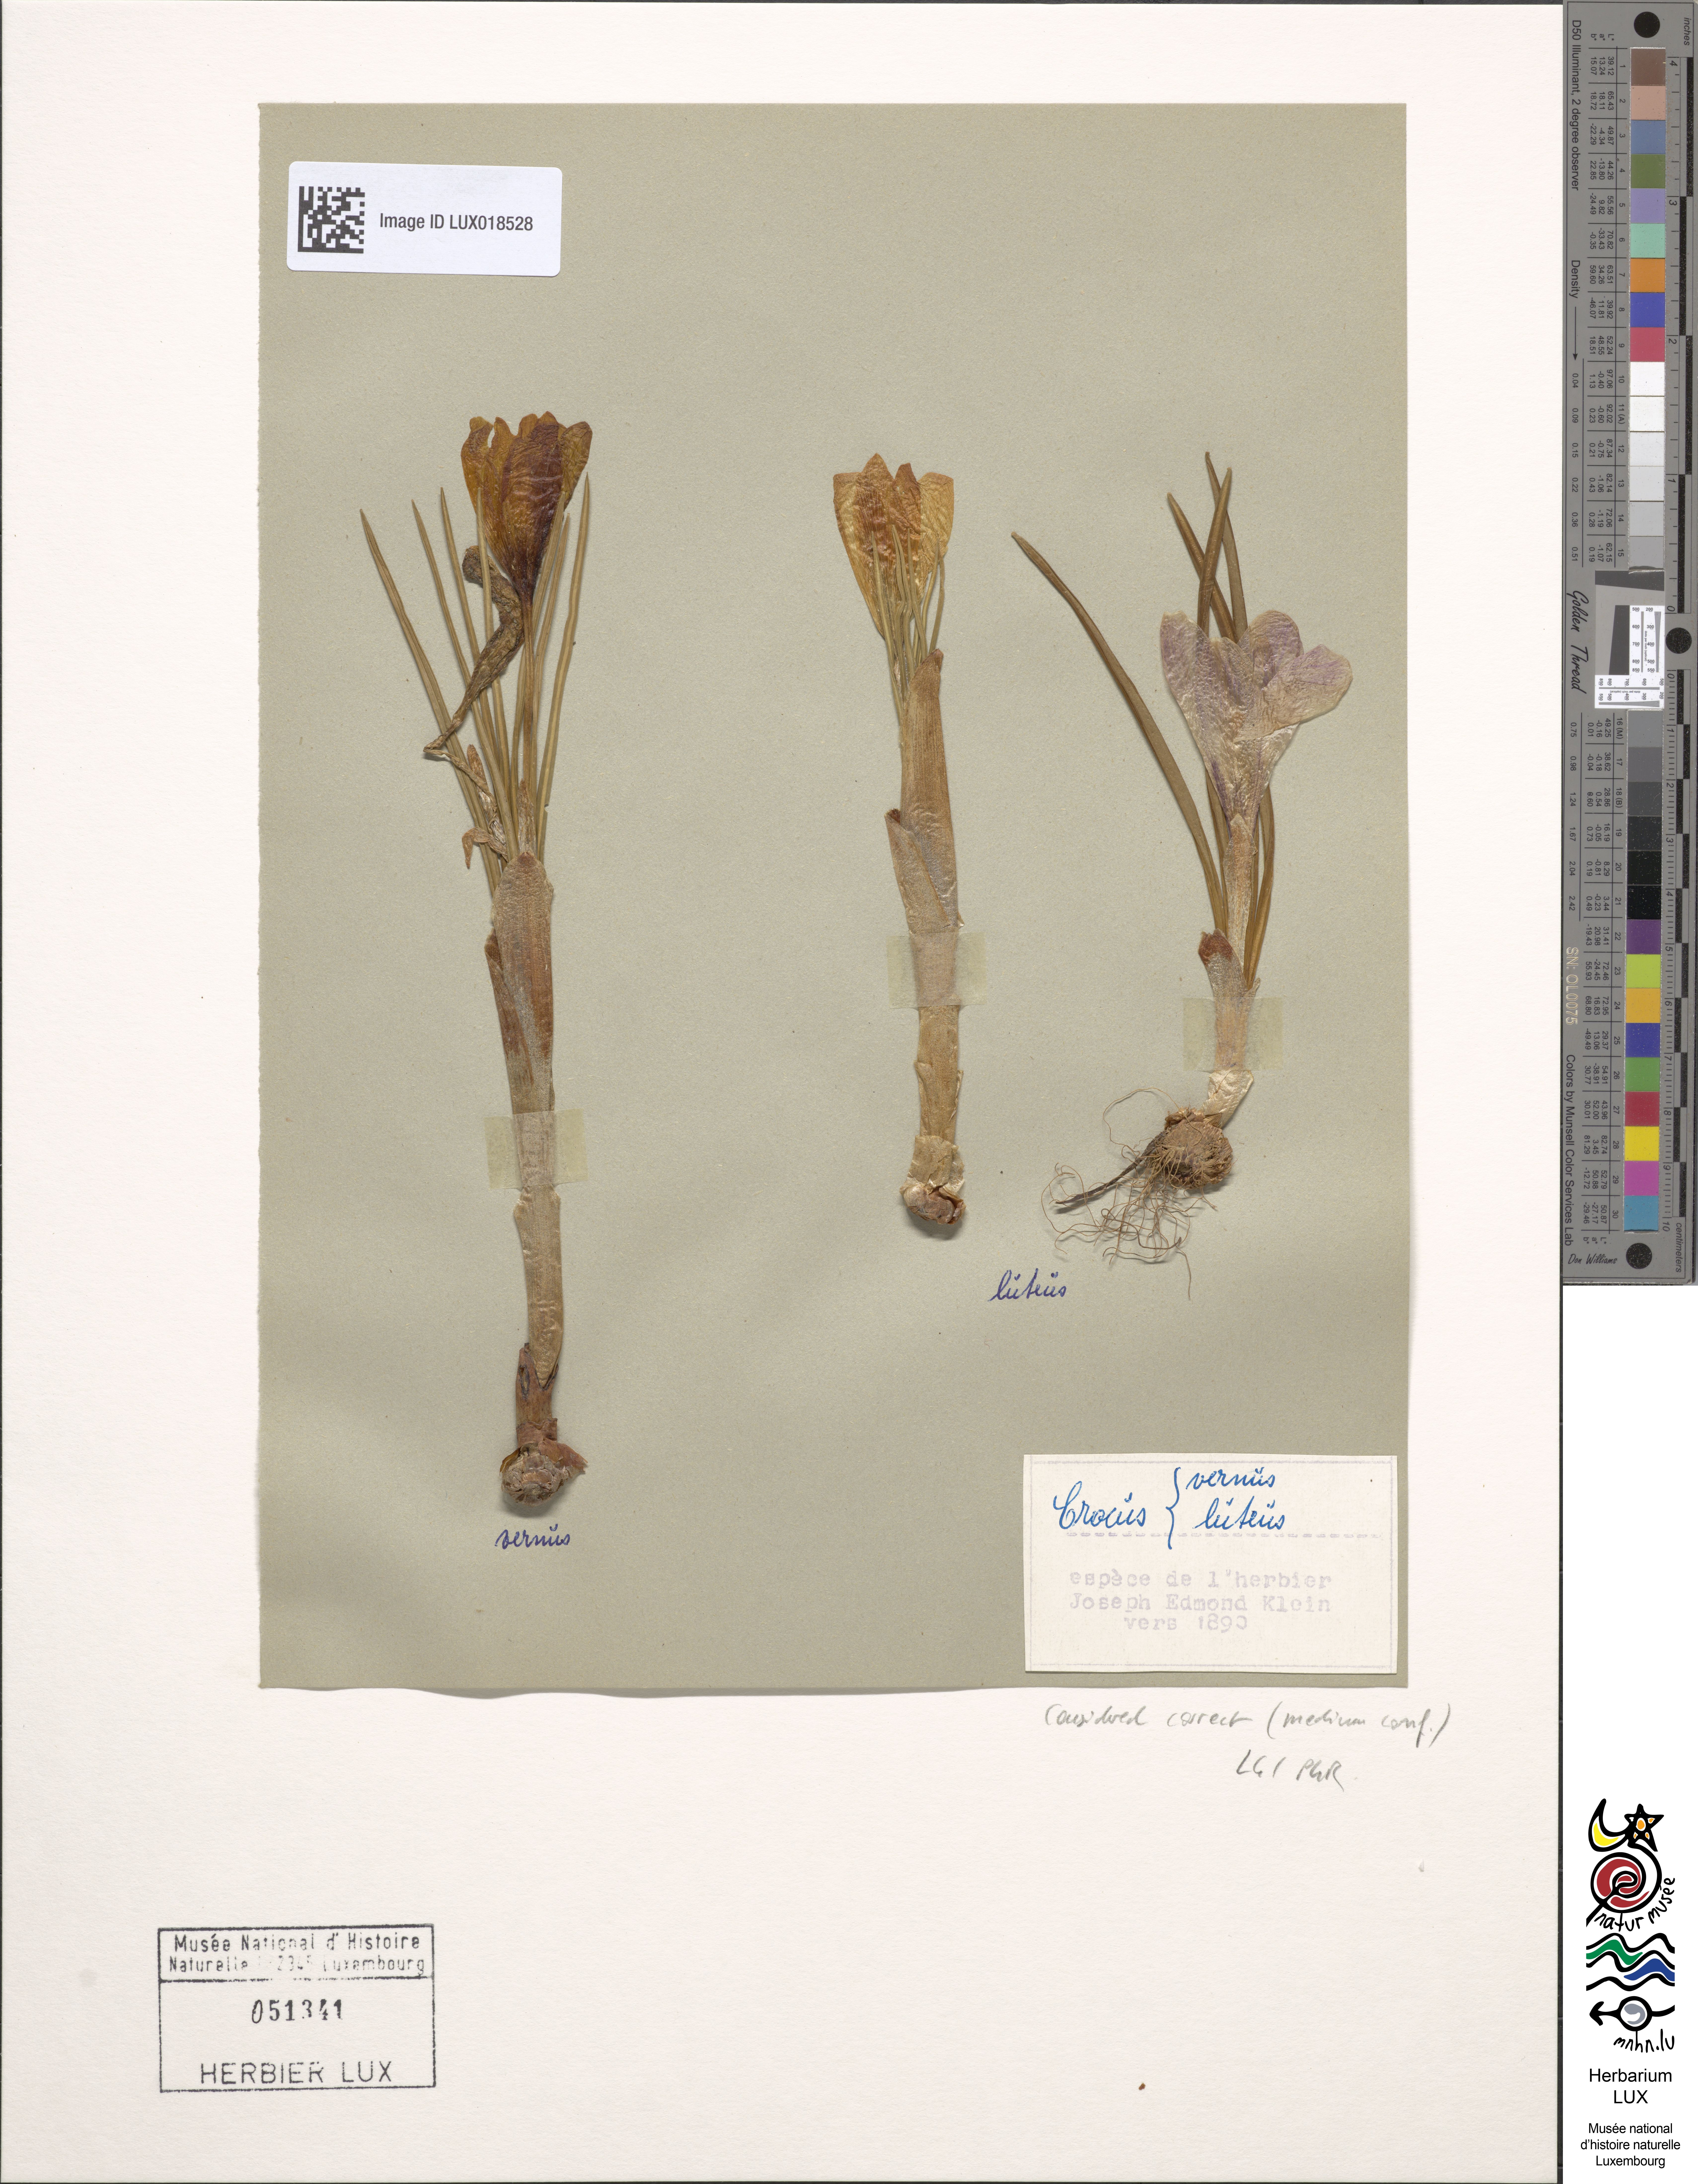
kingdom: Plantae
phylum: Tracheophyta
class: Liliopsida
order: Asparagales
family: Iridaceae
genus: Crocus
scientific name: Crocus vernus
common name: Spring crocus
